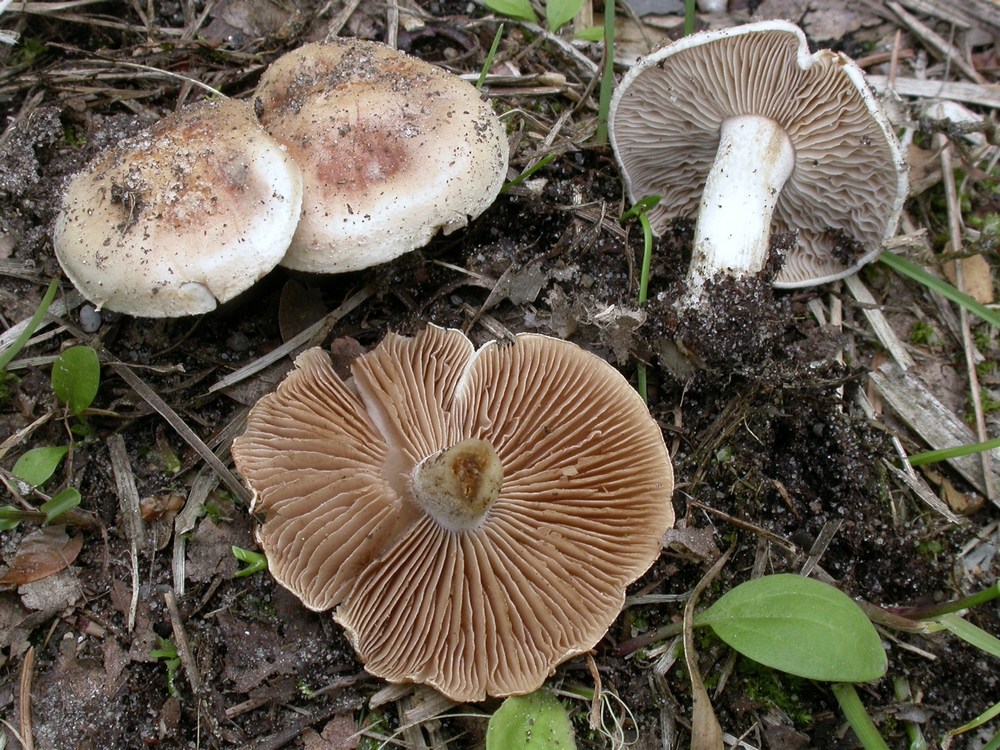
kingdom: Fungi
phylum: Basidiomycota
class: Agaricomycetes
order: Agaricales
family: Hymenogastraceae
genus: Hebeloma
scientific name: Hebeloma
